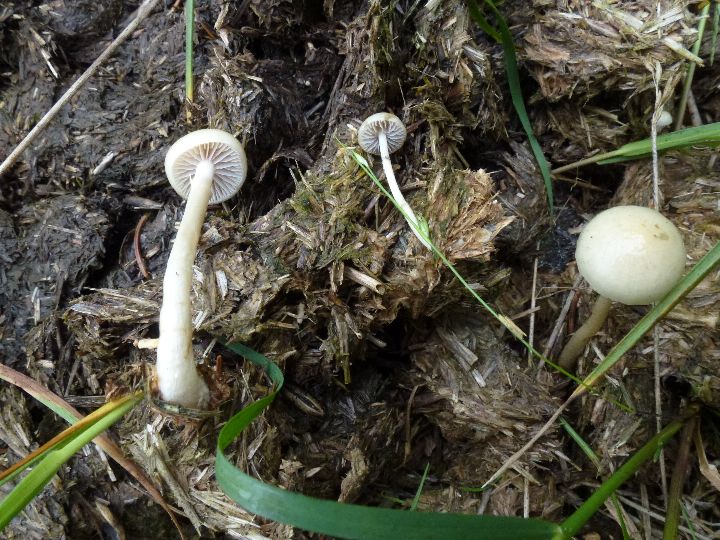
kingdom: Fungi
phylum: Basidiomycota
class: Agaricomycetes
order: Agaricales
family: Strophariaceae
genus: Protostropharia
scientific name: Protostropharia semiglobata
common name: halvkugleformet bredblad
